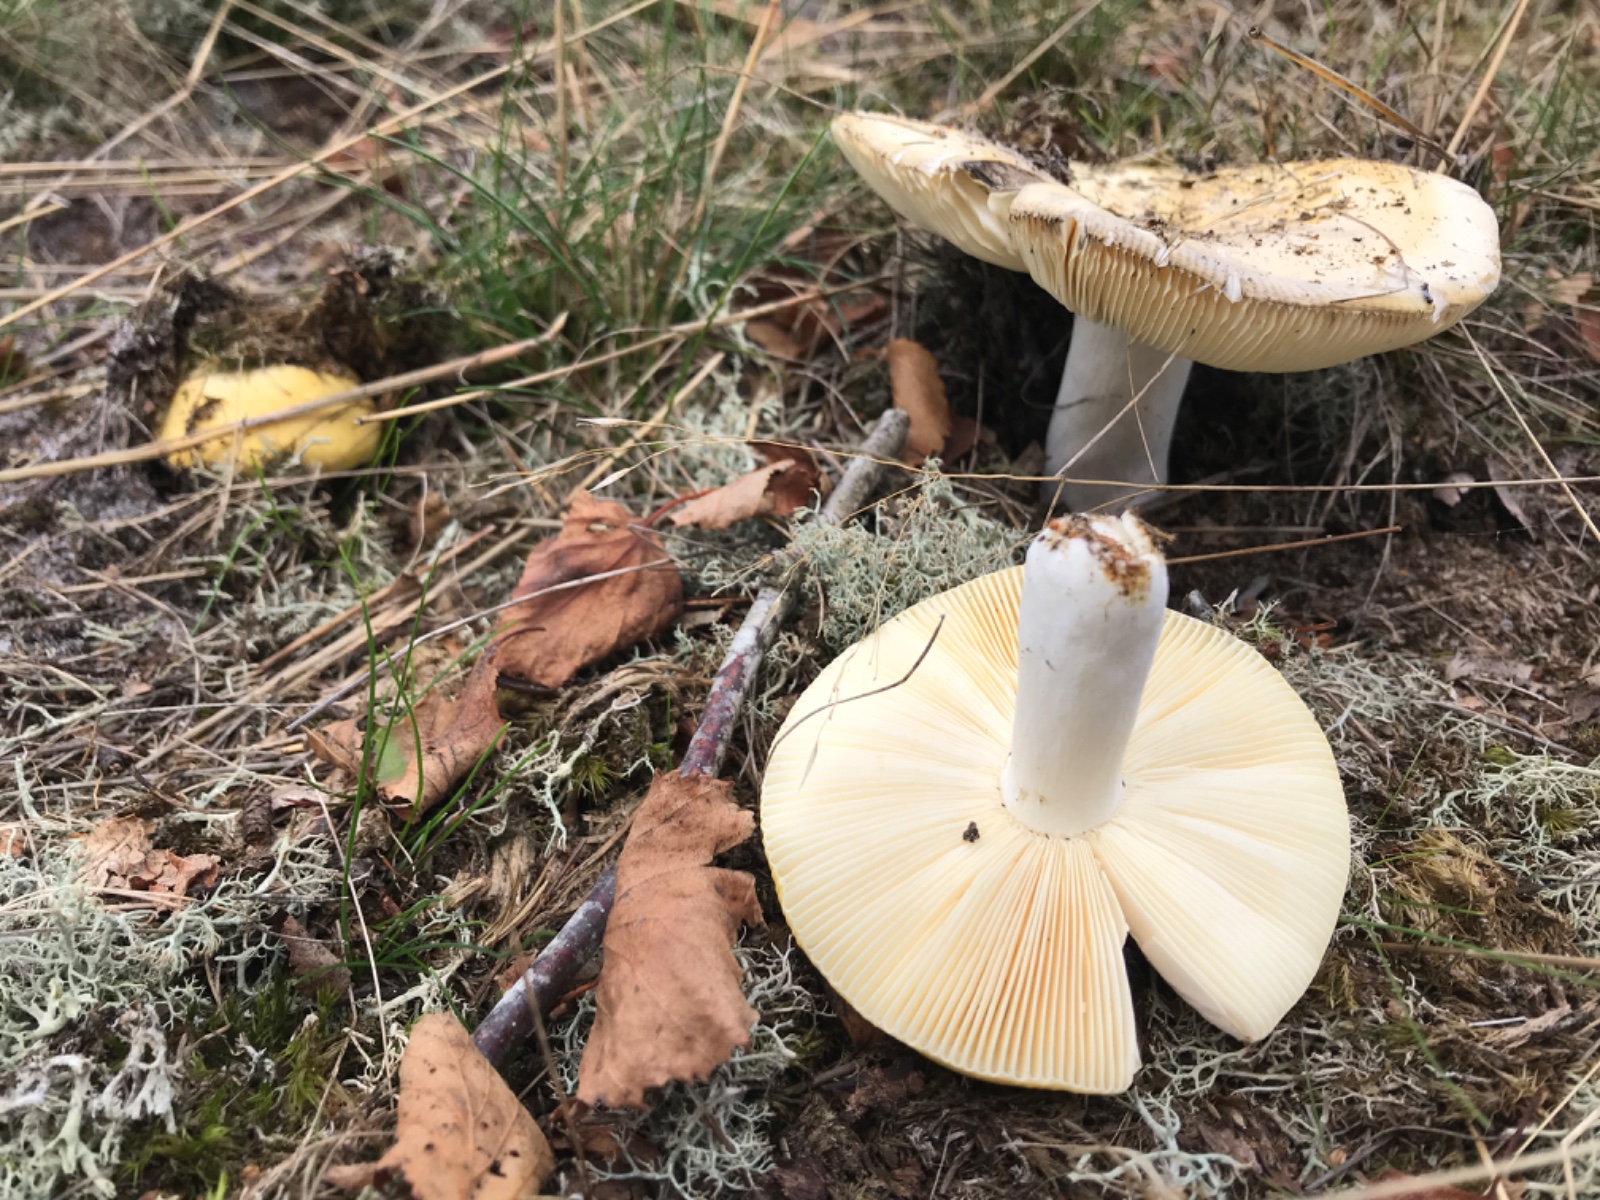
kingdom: Fungi
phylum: Basidiomycota
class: Agaricomycetes
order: Russulales
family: Russulaceae
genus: Russula
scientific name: Russula claroflava
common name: birke-skørhat
